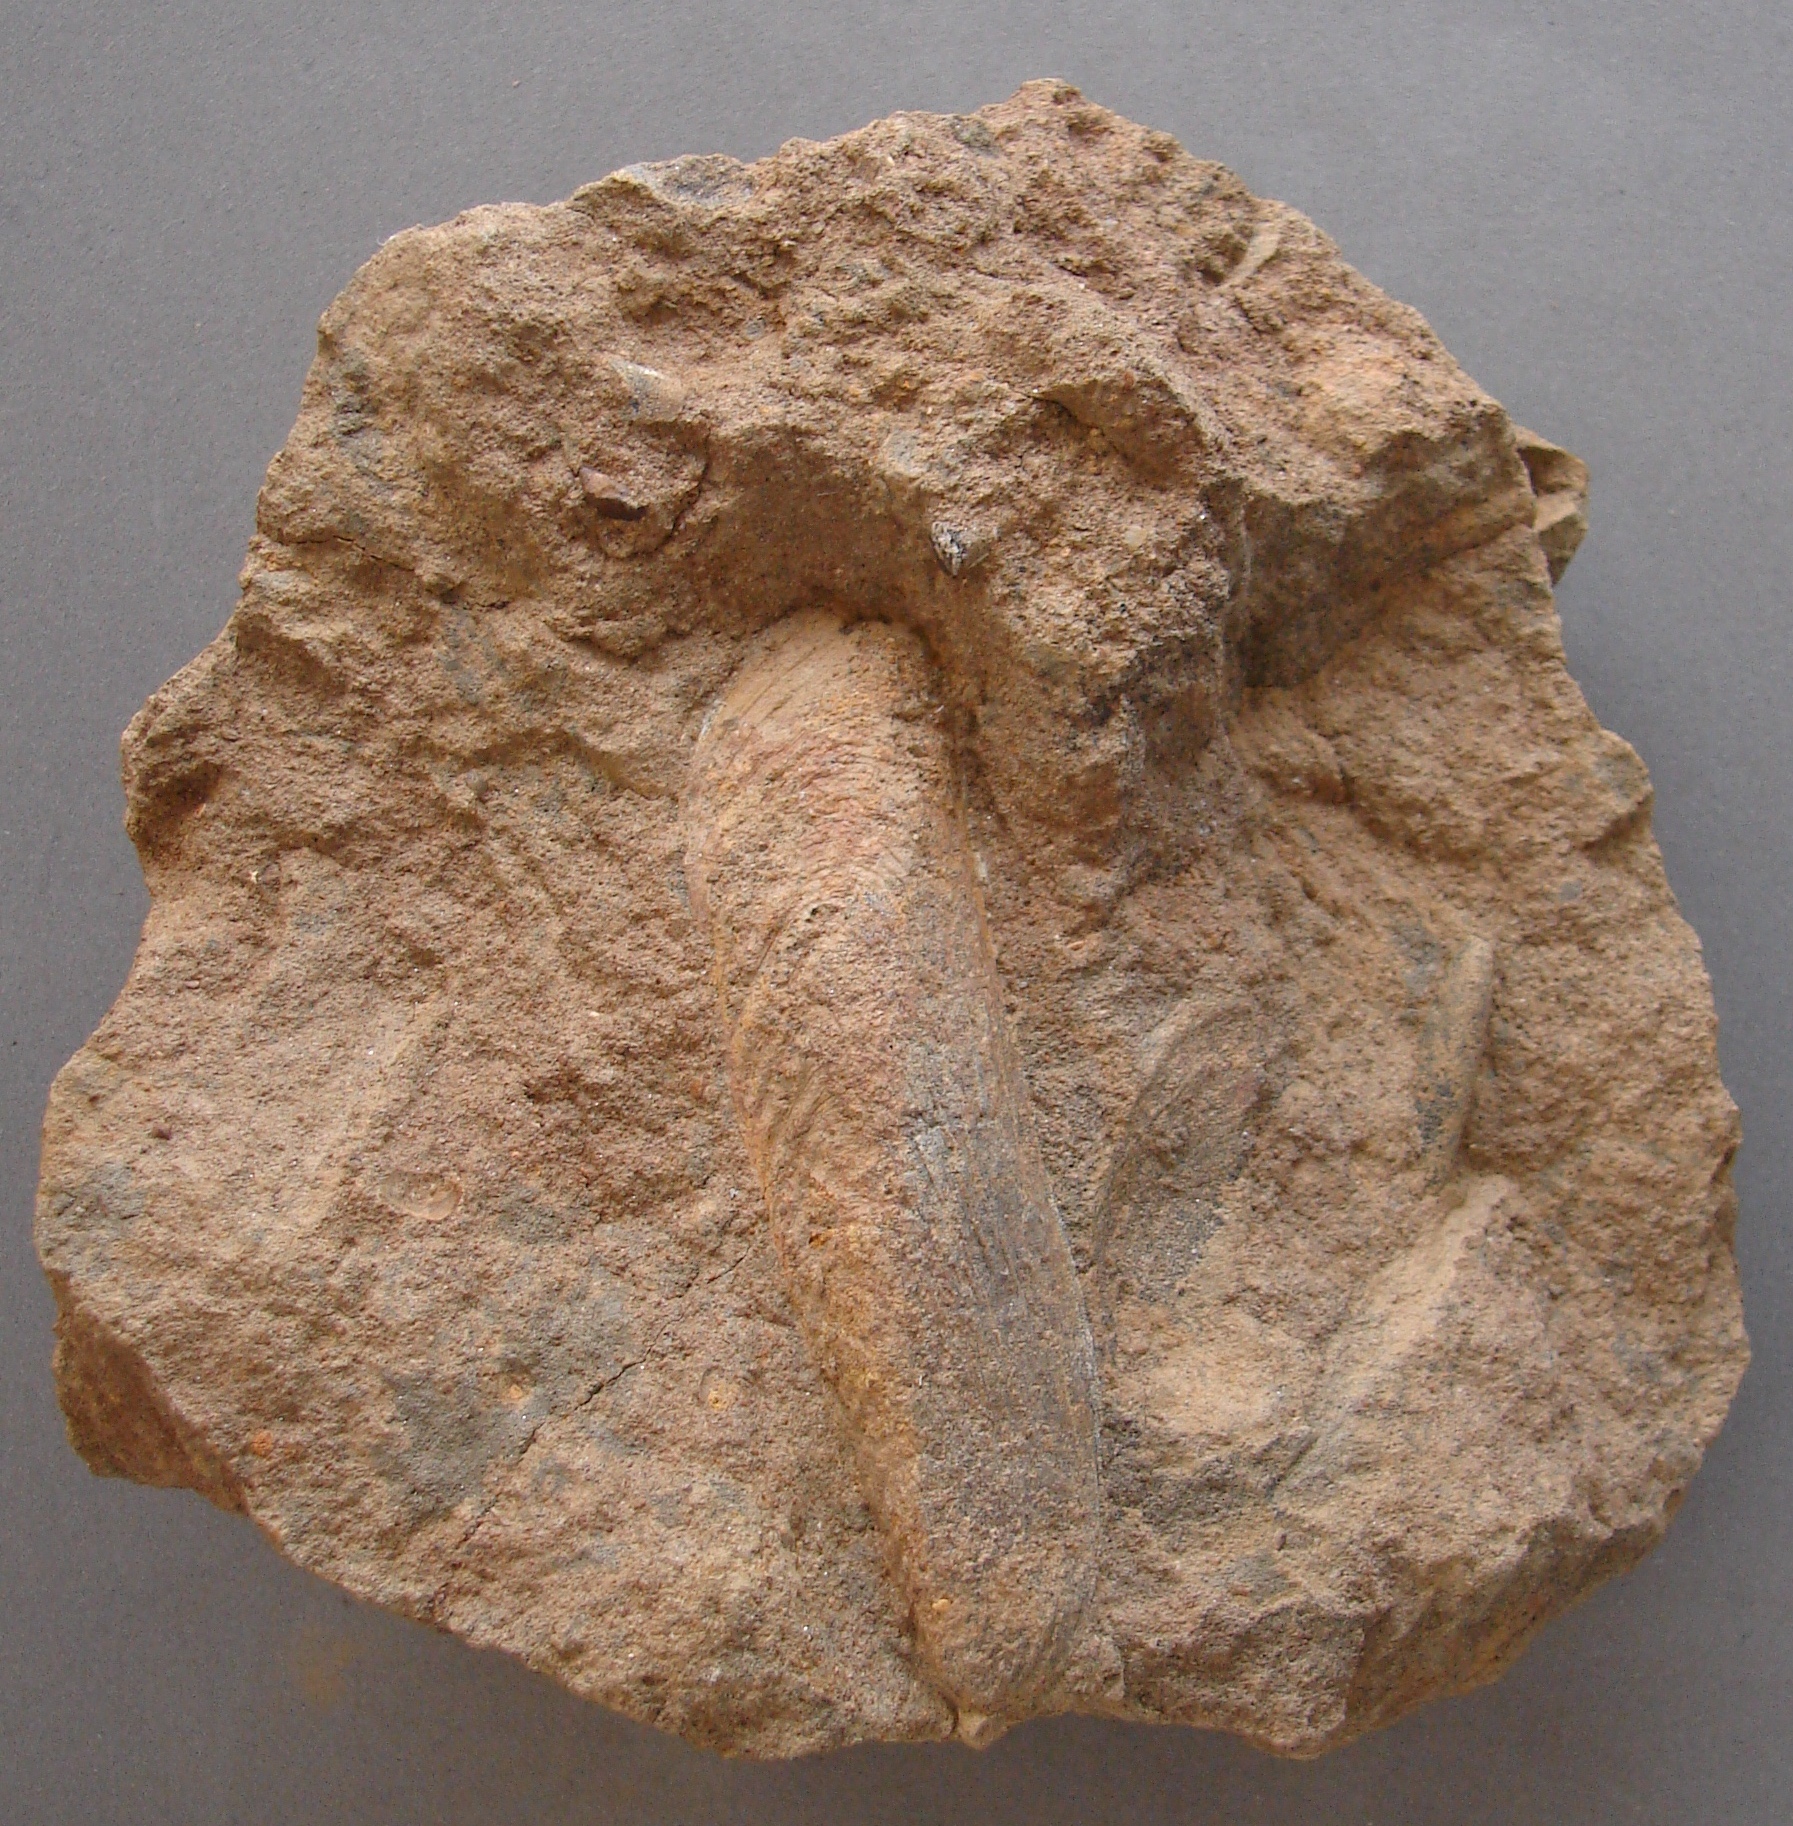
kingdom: Animalia
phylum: Mollusca
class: Bivalvia
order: Mytilida
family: Mytilidae
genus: Inoperna
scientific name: Inoperna
